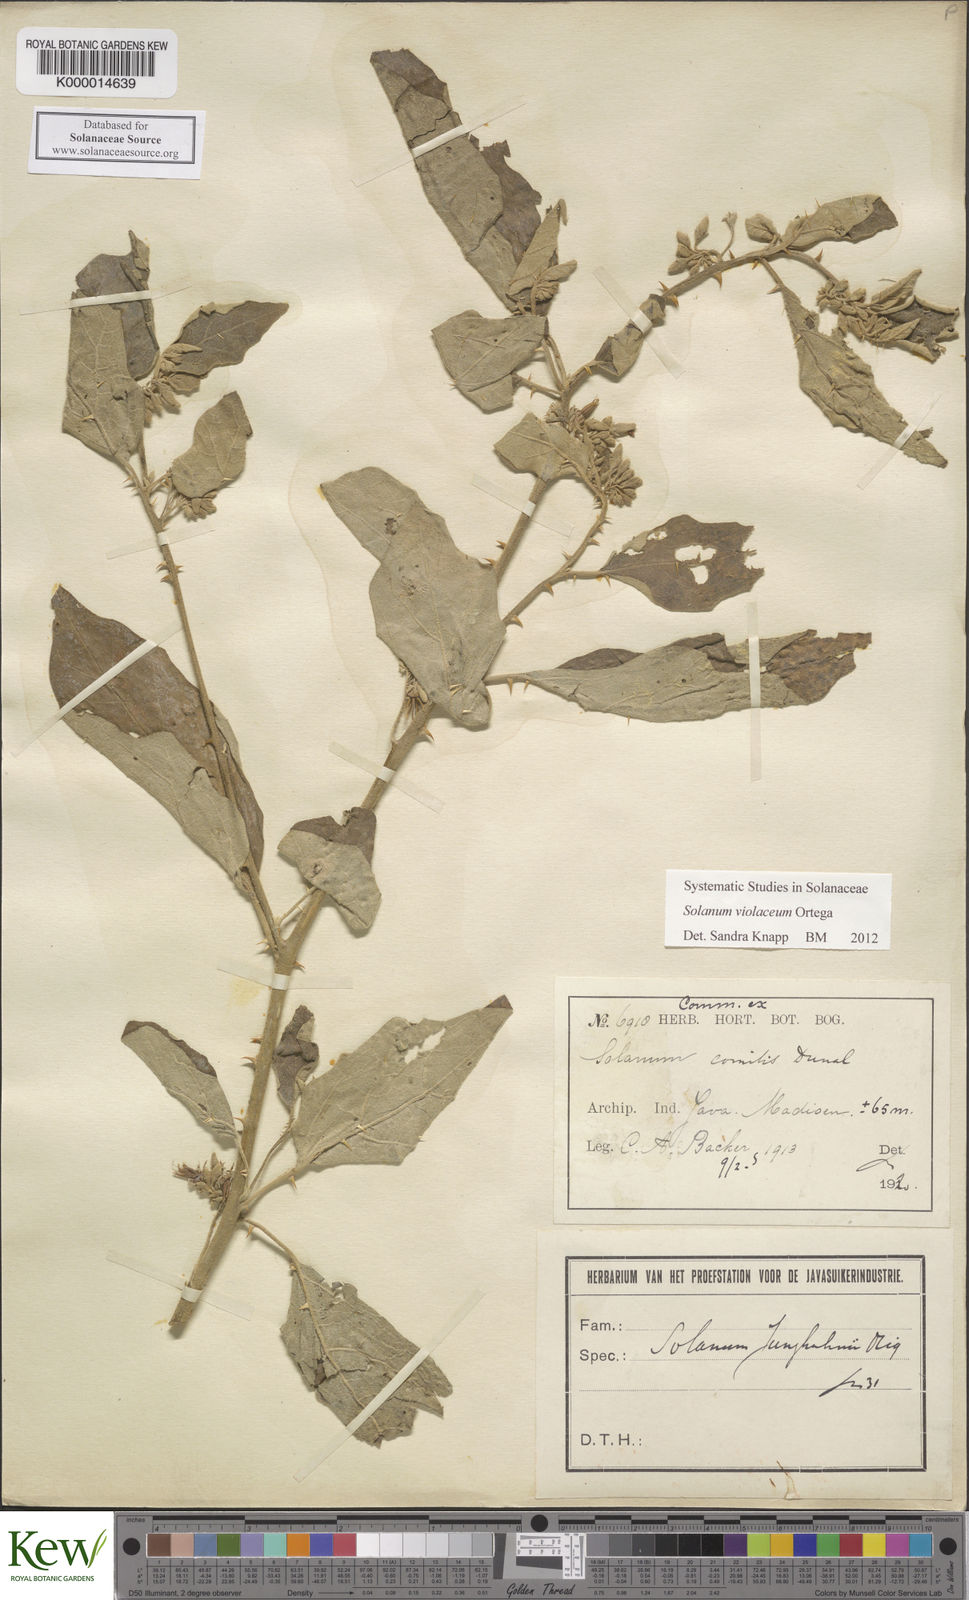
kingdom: Plantae
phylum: Tracheophyta
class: Magnoliopsida
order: Solanales
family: Solanaceae
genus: Solanum
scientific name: Solanum violaceum
